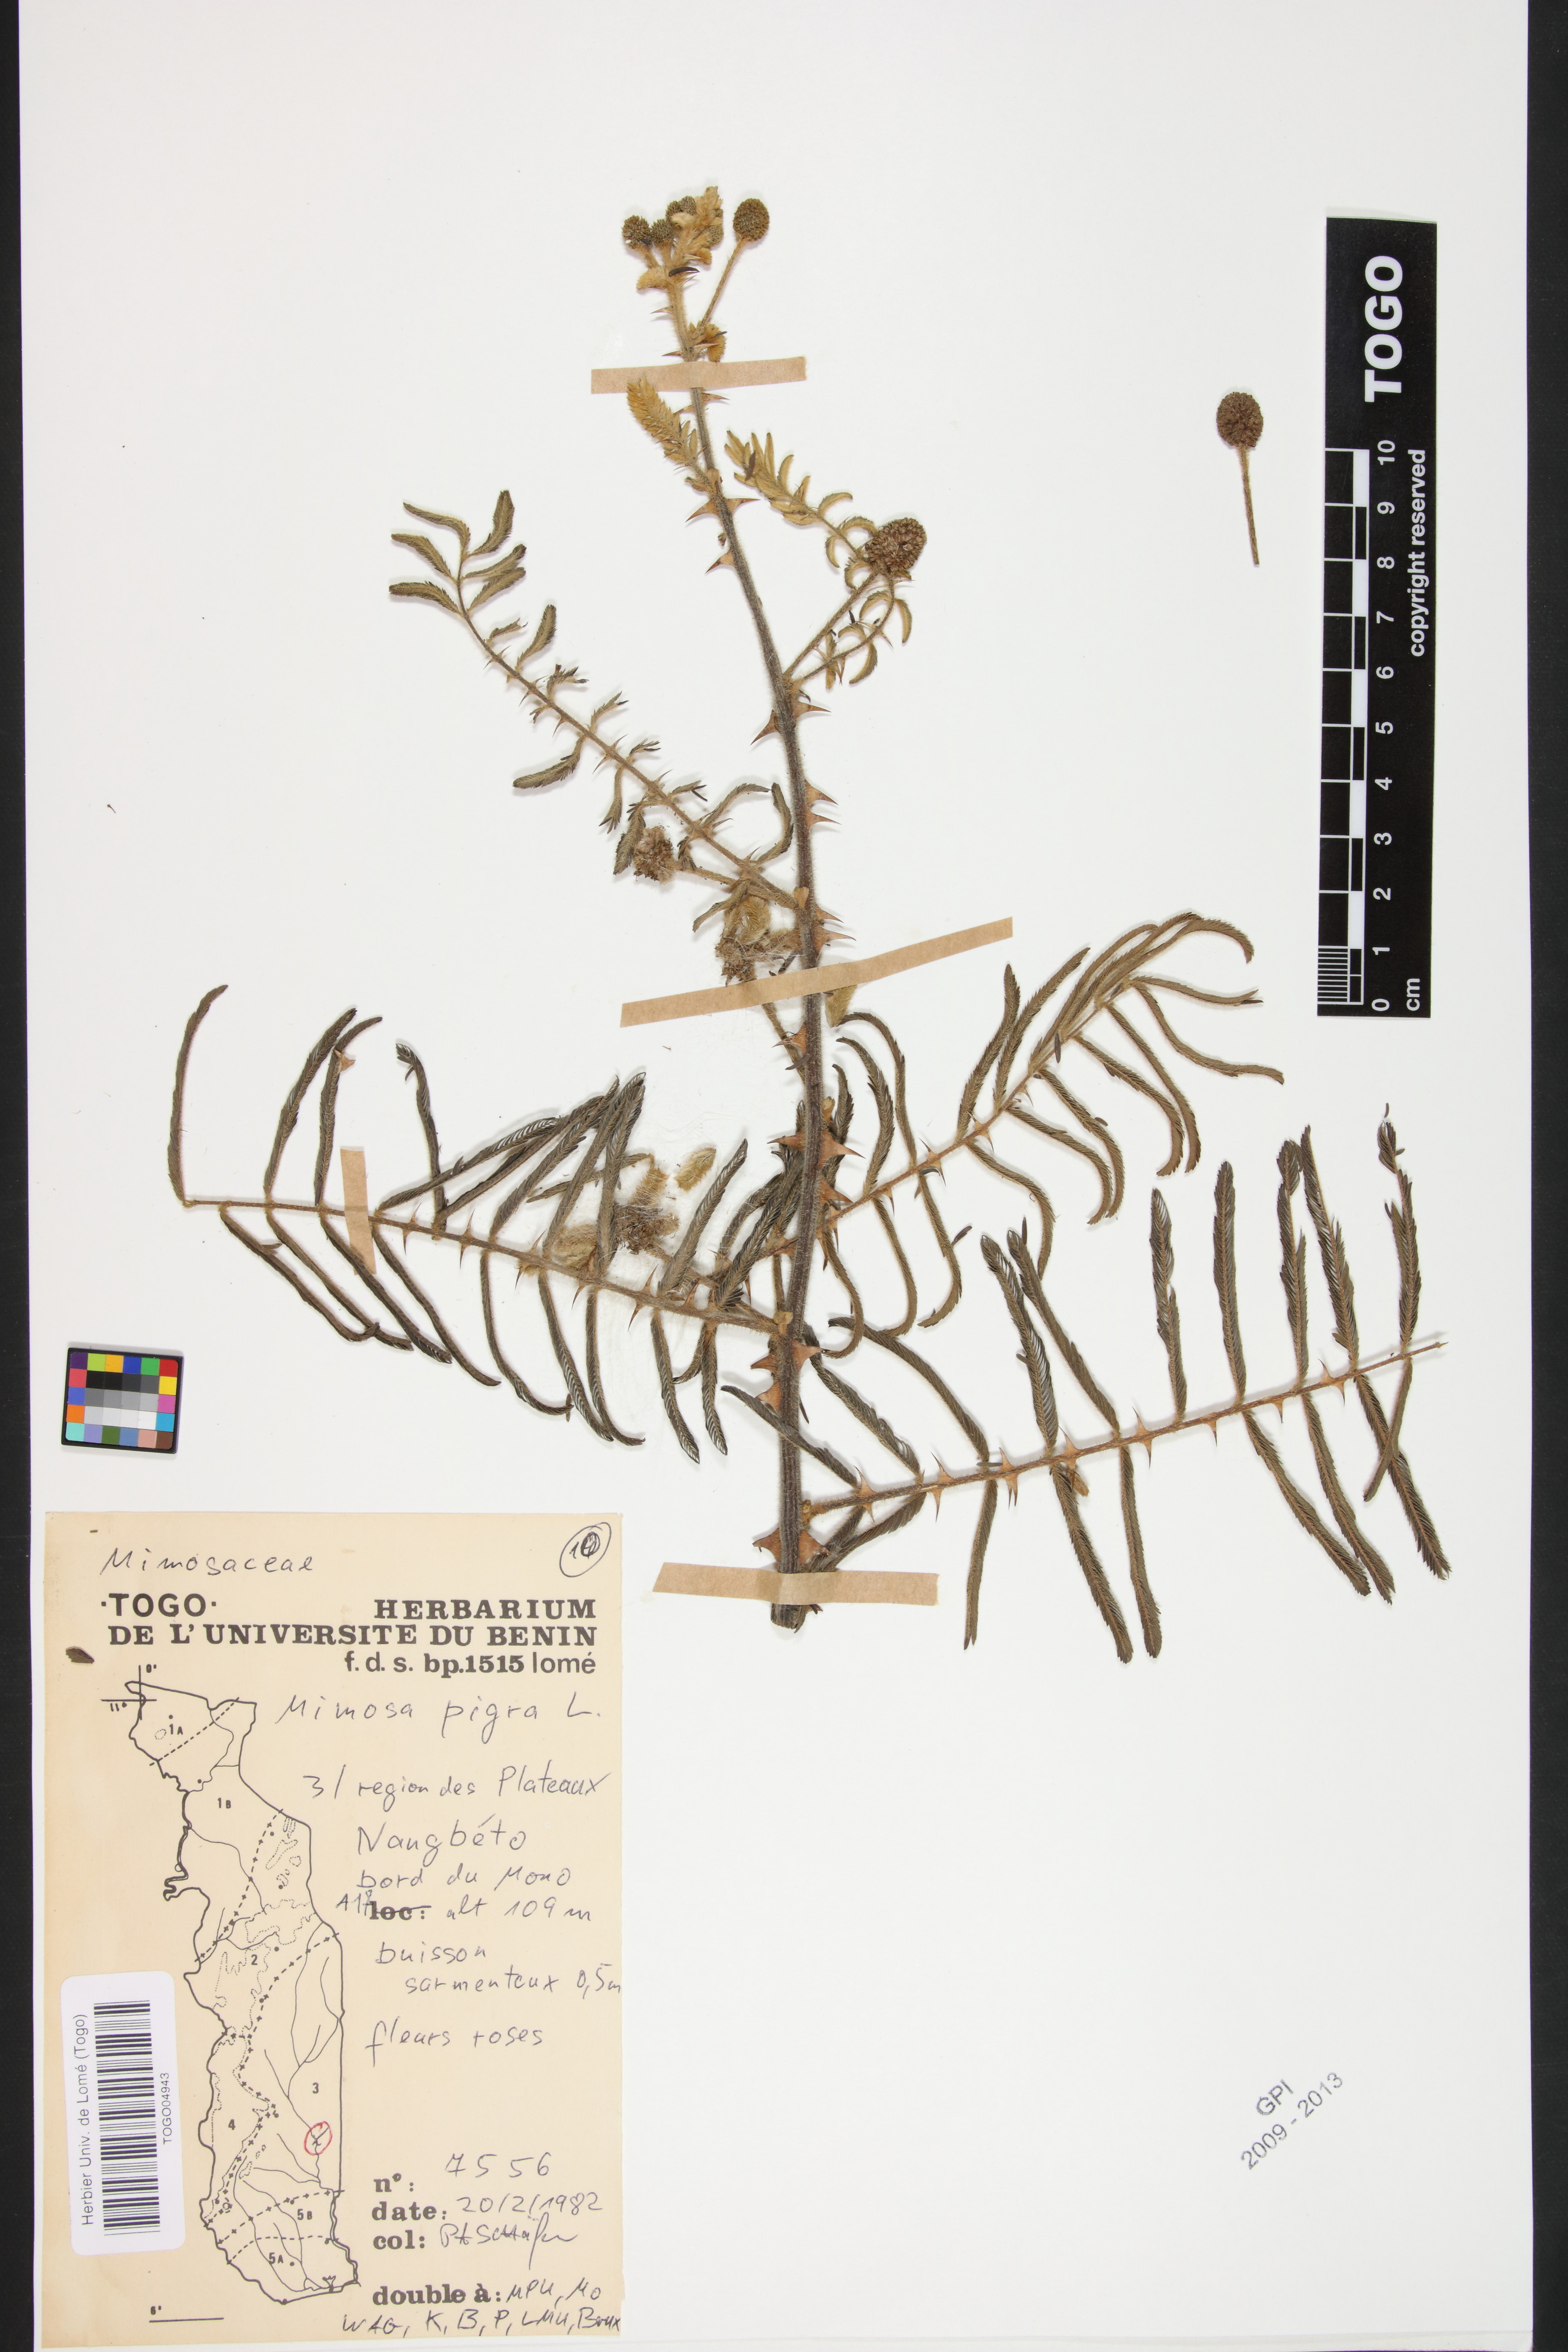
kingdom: Plantae
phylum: Tracheophyta
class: Magnoliopsida
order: Fabales
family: Fabaceae
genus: Mimosa
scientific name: Mimosa pigra
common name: Black mimosa
